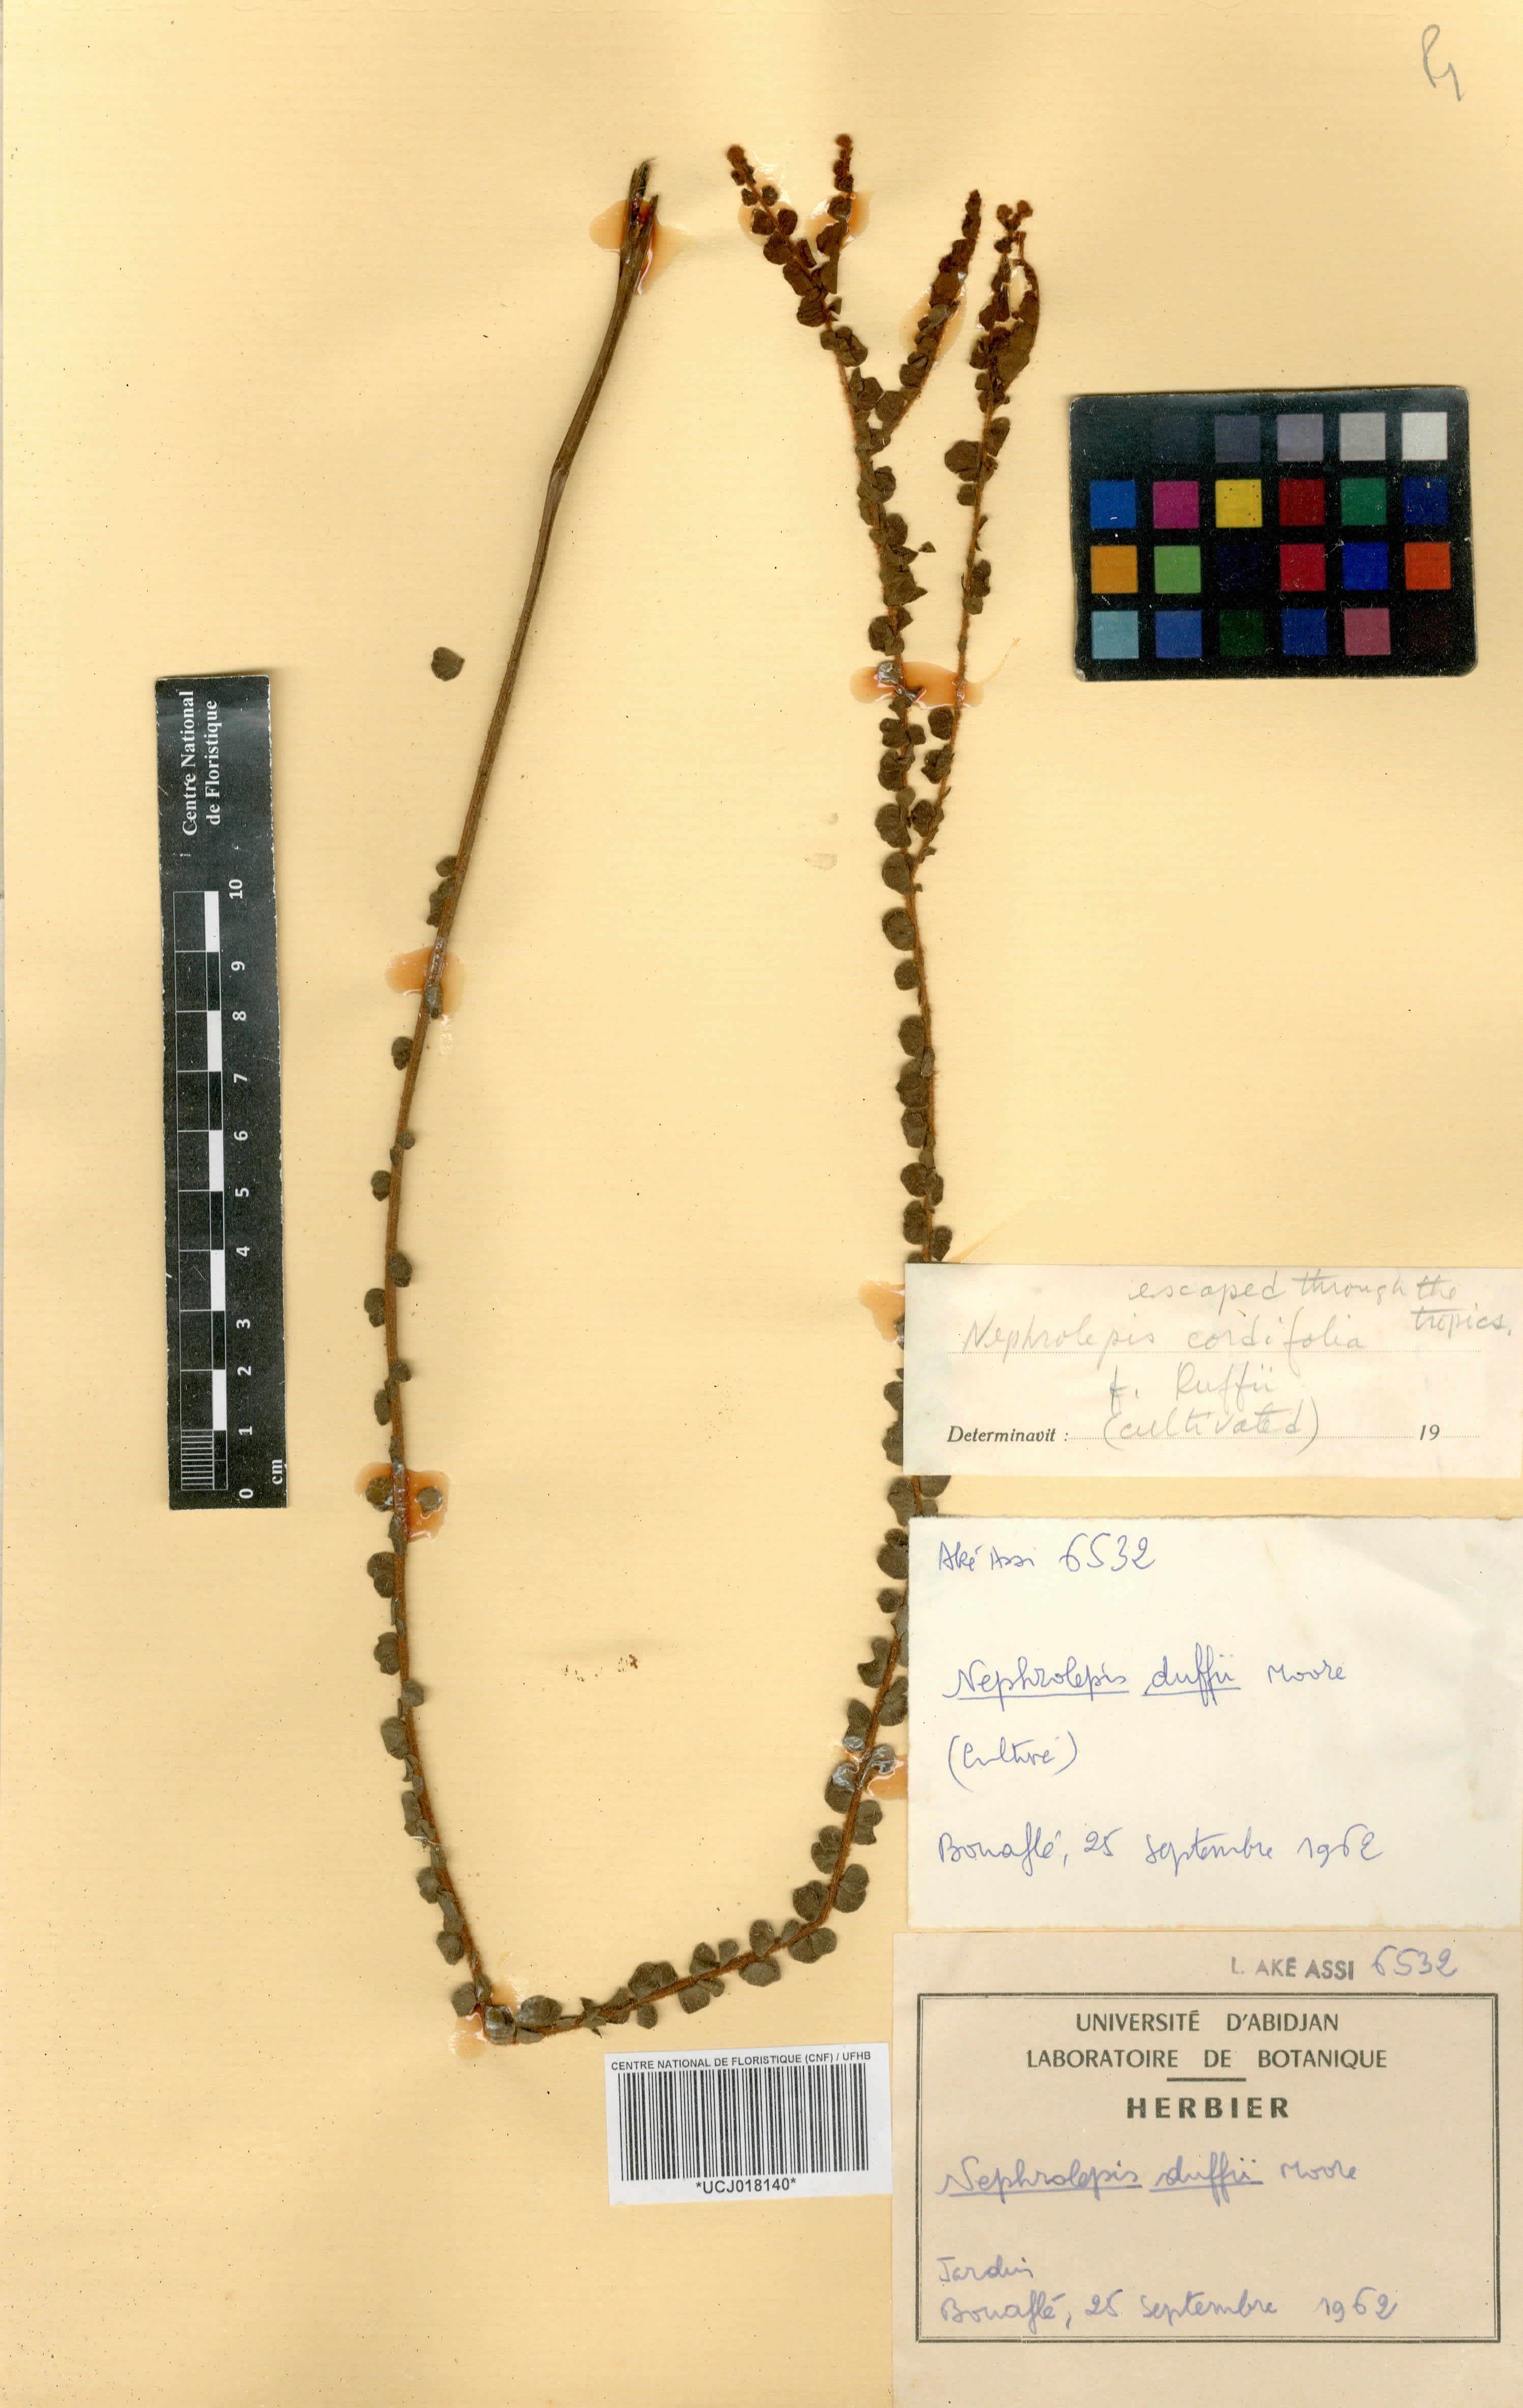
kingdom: Plantae
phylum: Tracheophyta
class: Polypodiopsida
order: Polypodiales
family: Nephrolepidaceae
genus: Nephrolepis
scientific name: Nephrolepis hirsutula
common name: Asian sword fern
